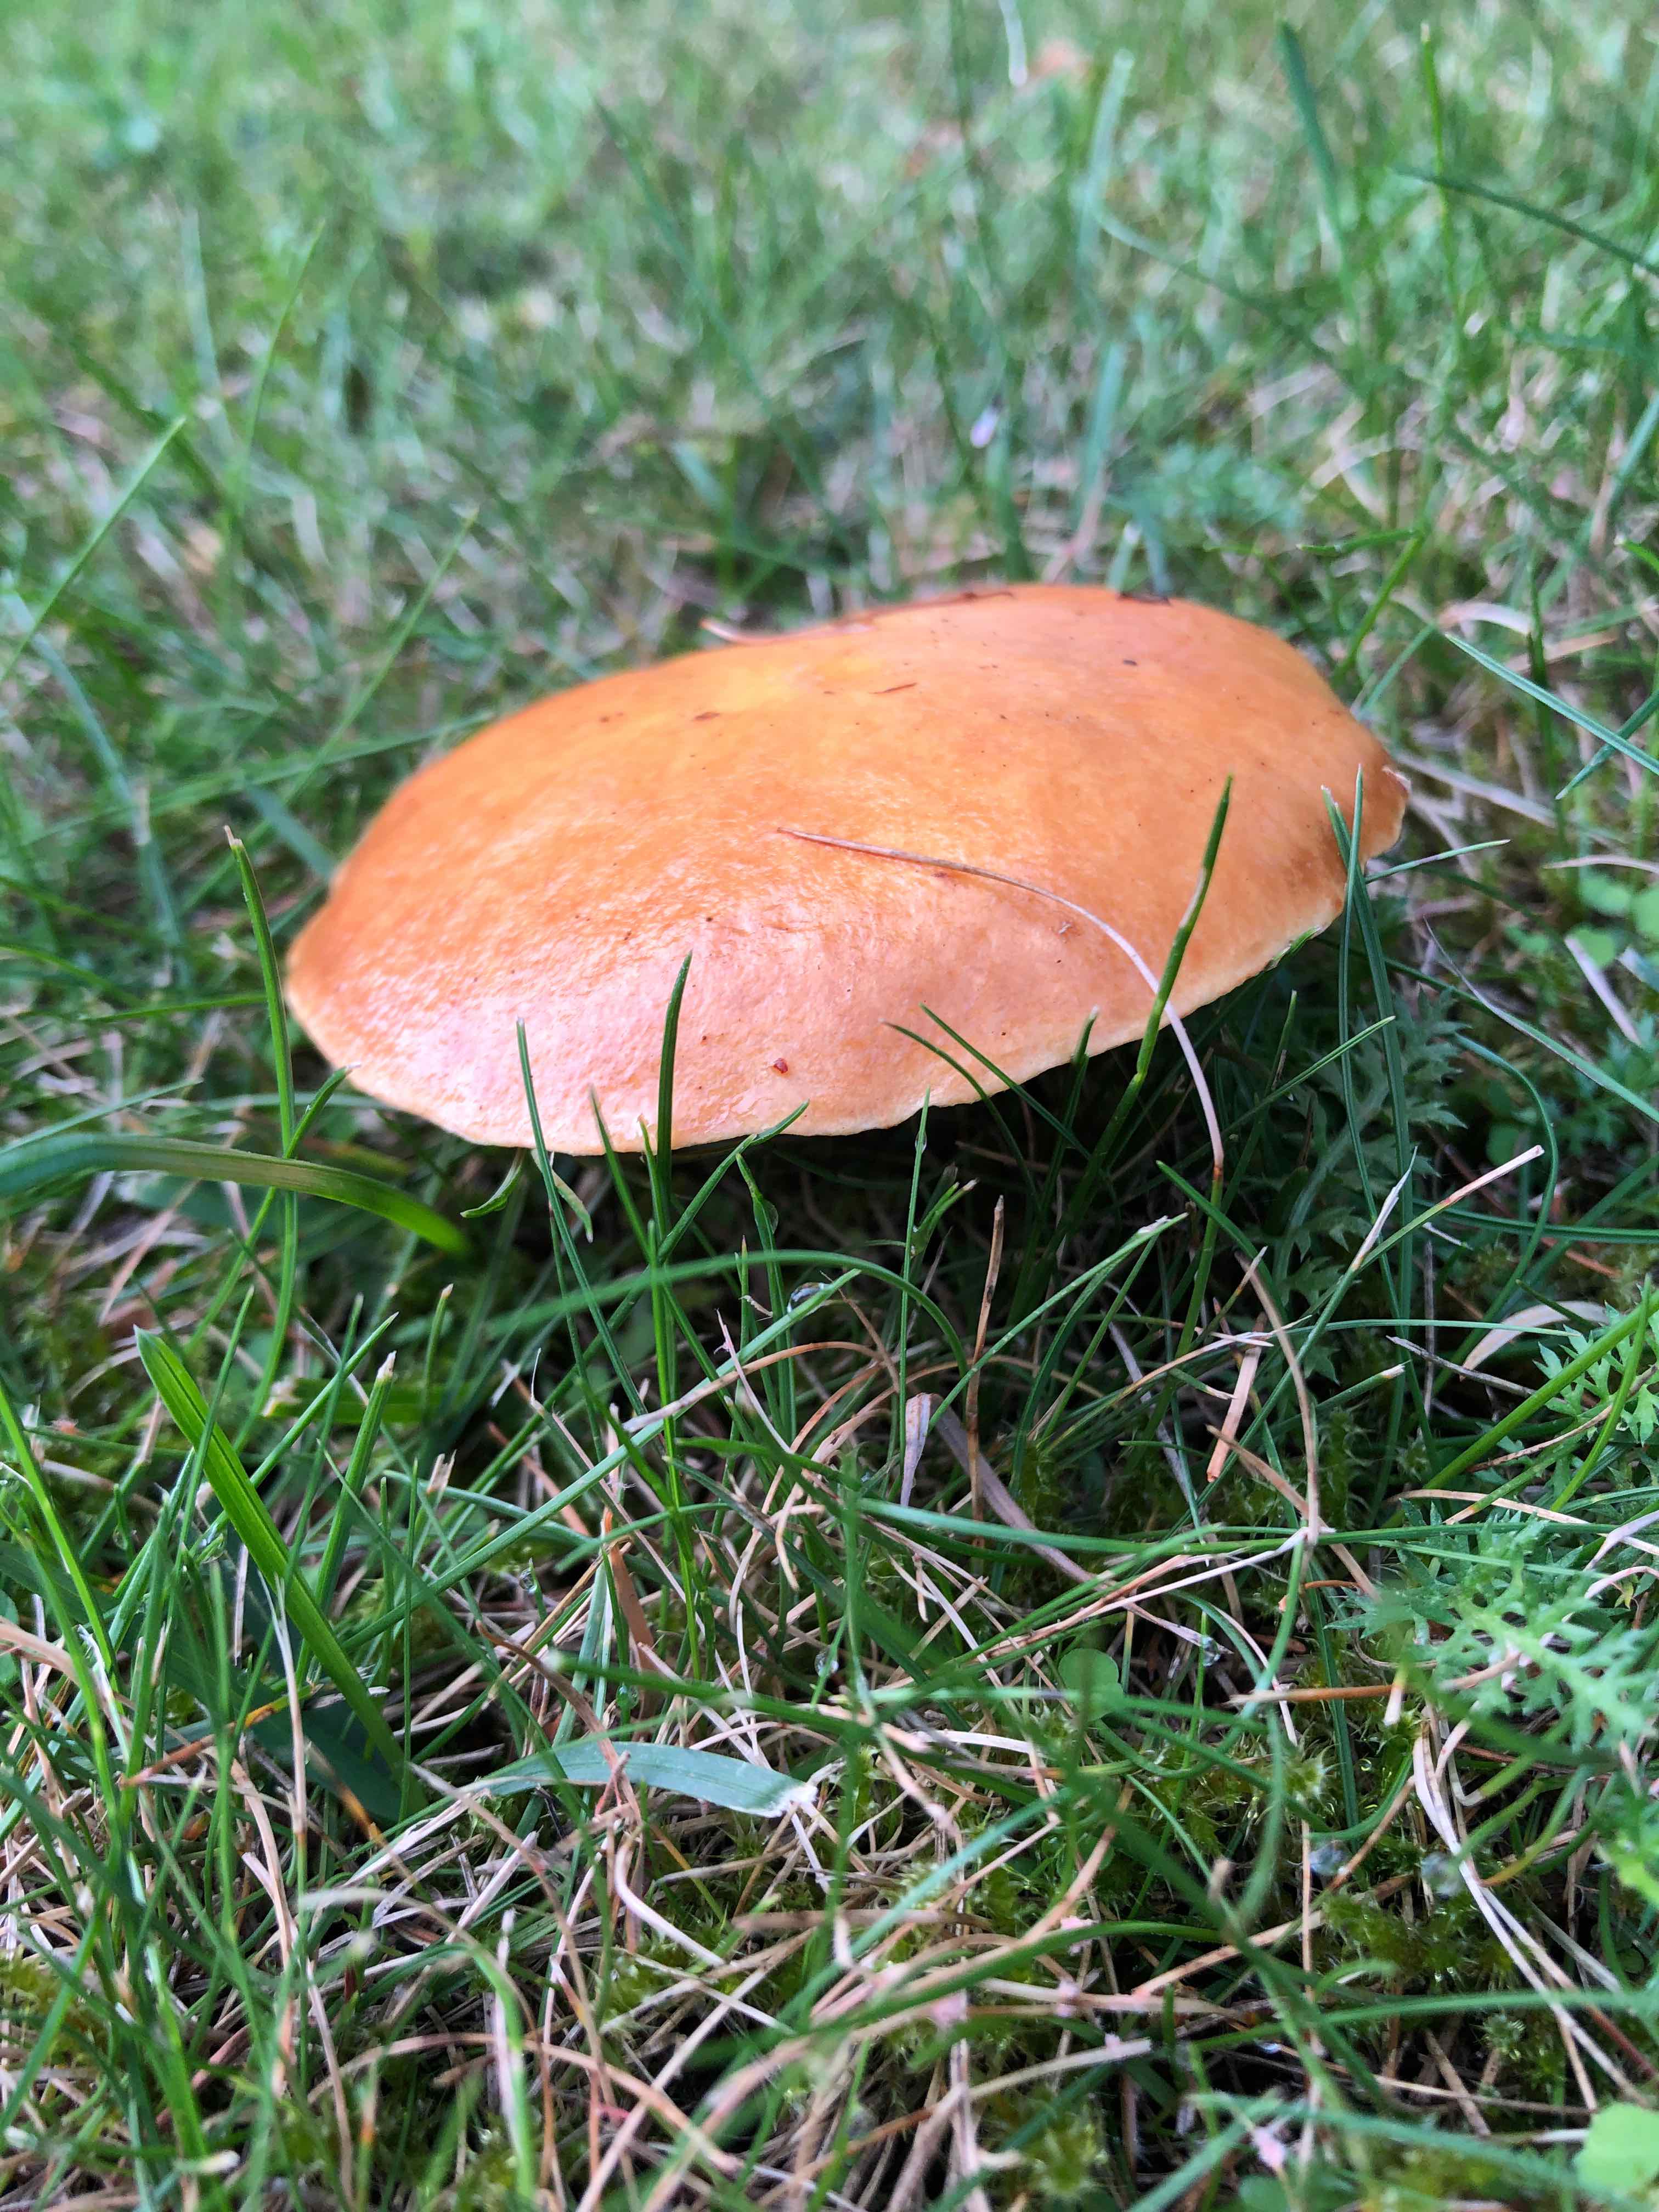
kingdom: Fungi
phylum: Basidiomycota
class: Agaricomycetes
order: Boletales
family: Suillaceae
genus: Suillus
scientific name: Suillus grevillei
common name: lærke-slimrørhat
